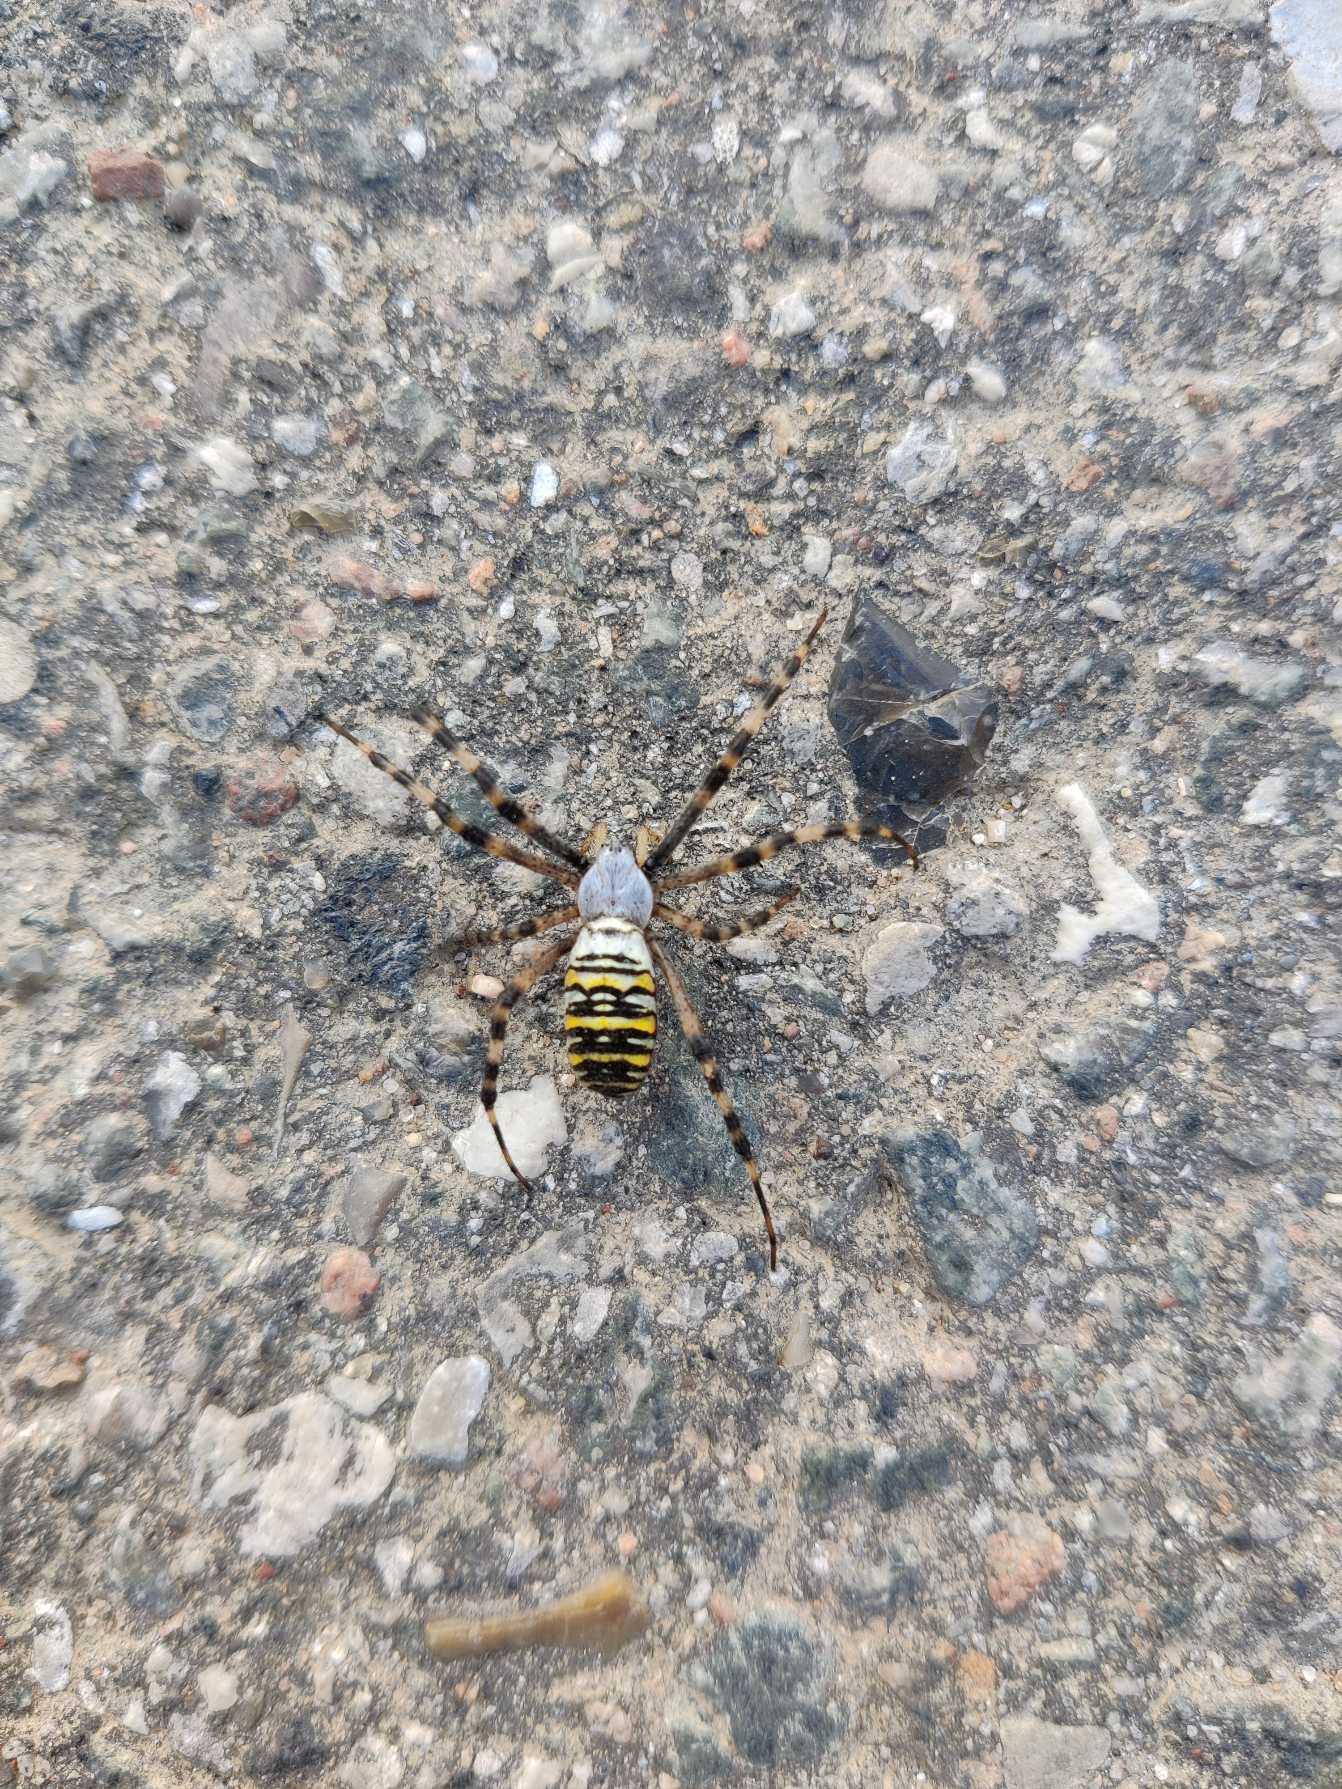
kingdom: Animalia
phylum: Arthropoda
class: Arachnida
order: Araneae
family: Araneidae
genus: Argiope
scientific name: Argiope bruennichi
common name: Hvepseedderkop
